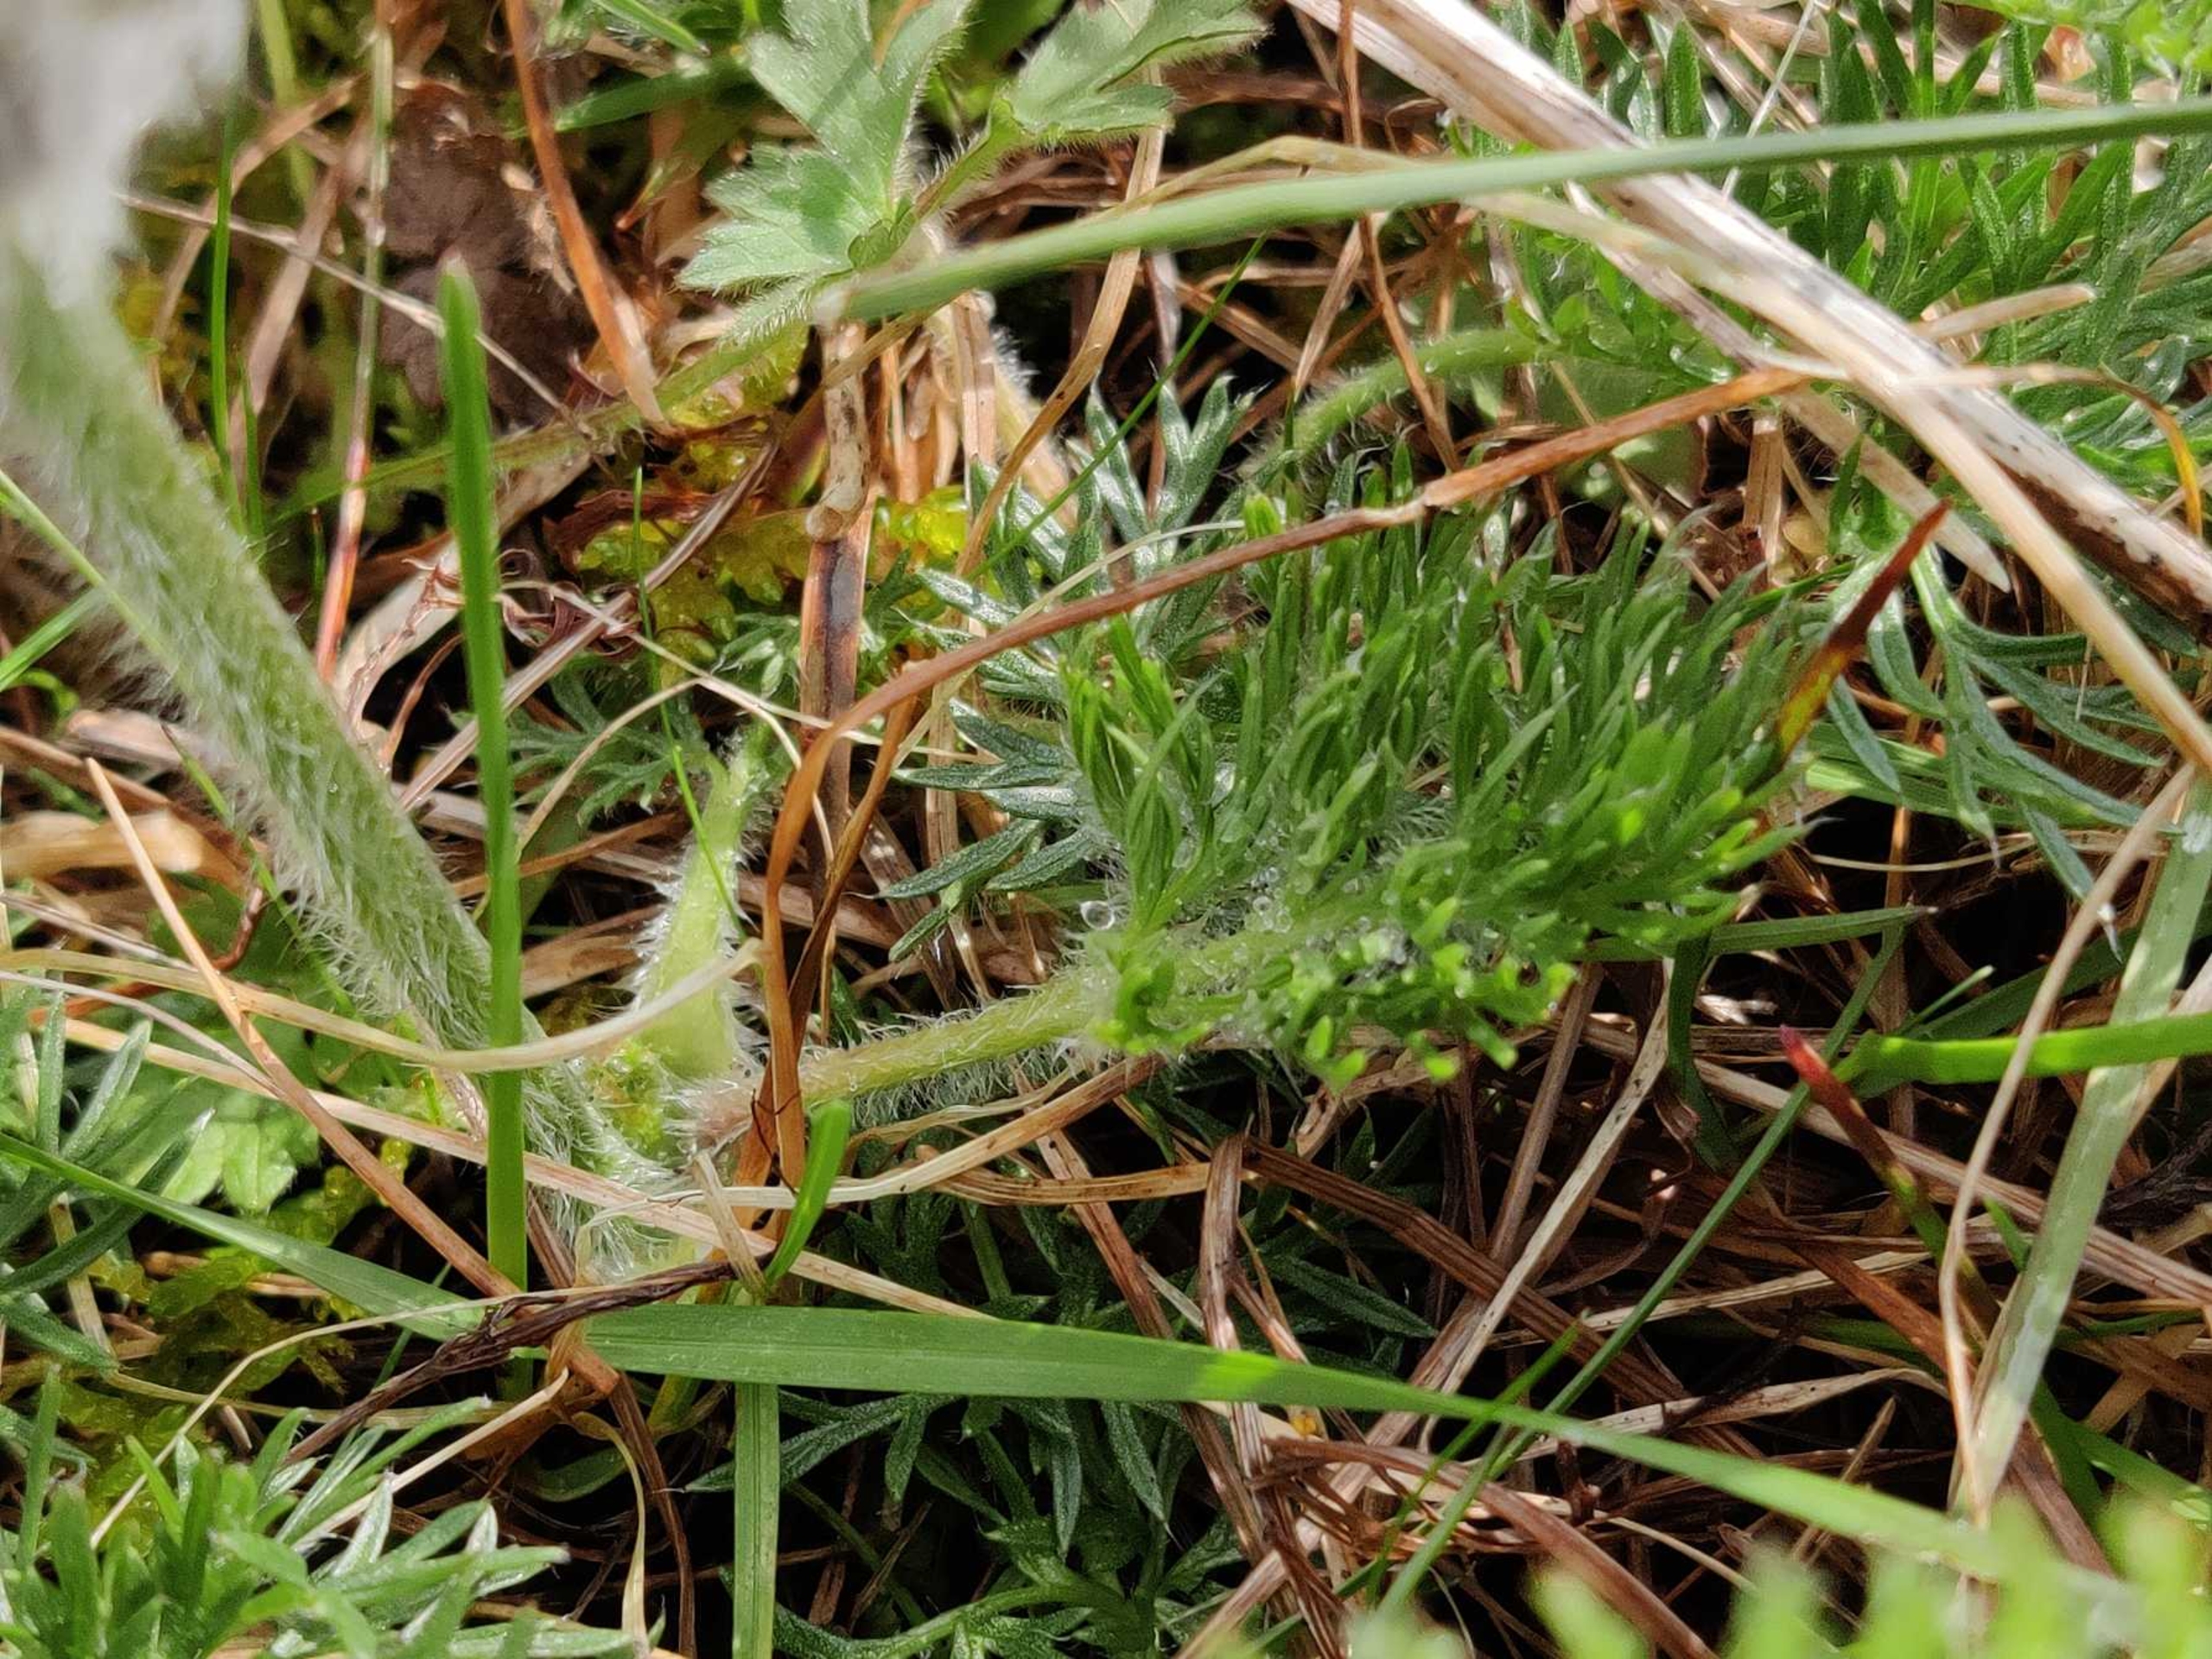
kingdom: Plantae
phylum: Tracheophyta
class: Magnoliopsida
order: Ranunculales
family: Ranunculaceae
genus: Pulsatilla
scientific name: Pulsatilla vulgaris
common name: Opret kobjælde
